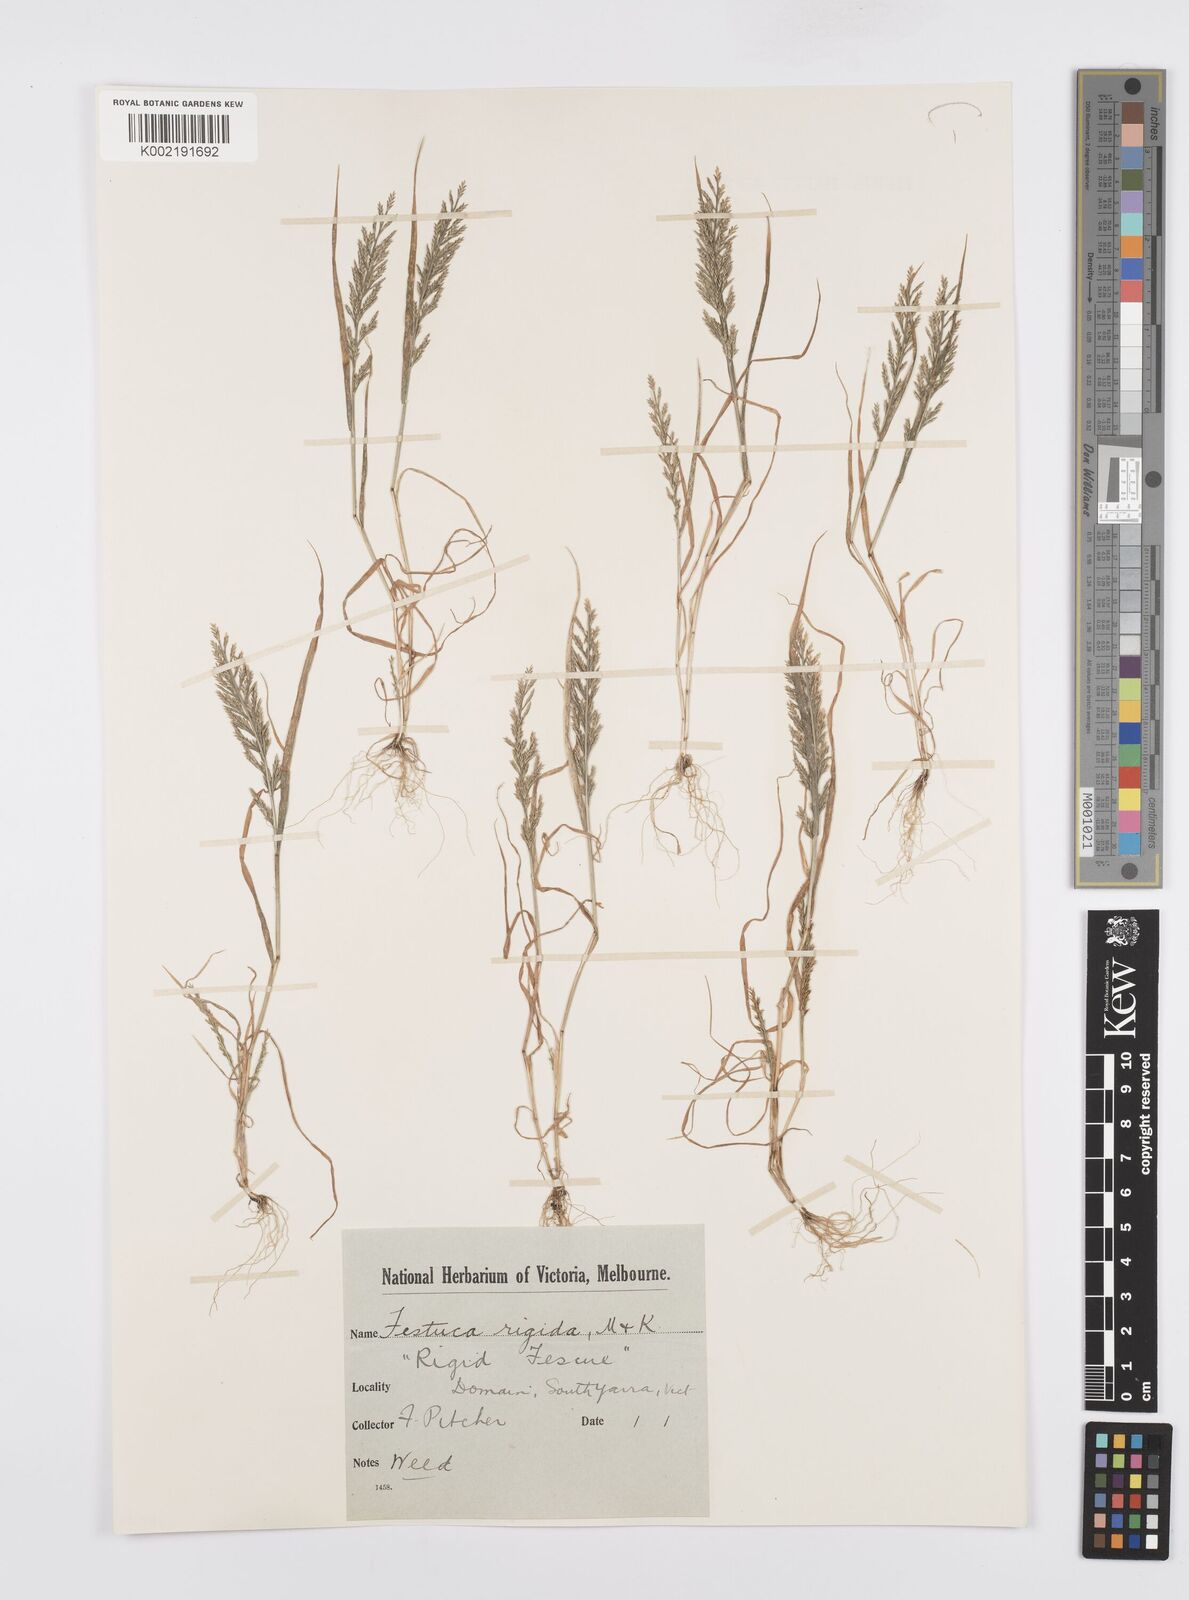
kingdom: Plantae
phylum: Tracheophyta
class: Liliopsida
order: Poales
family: Poaceae
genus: Catapodium
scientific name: Catapodium rigidum
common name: Fern-grass
